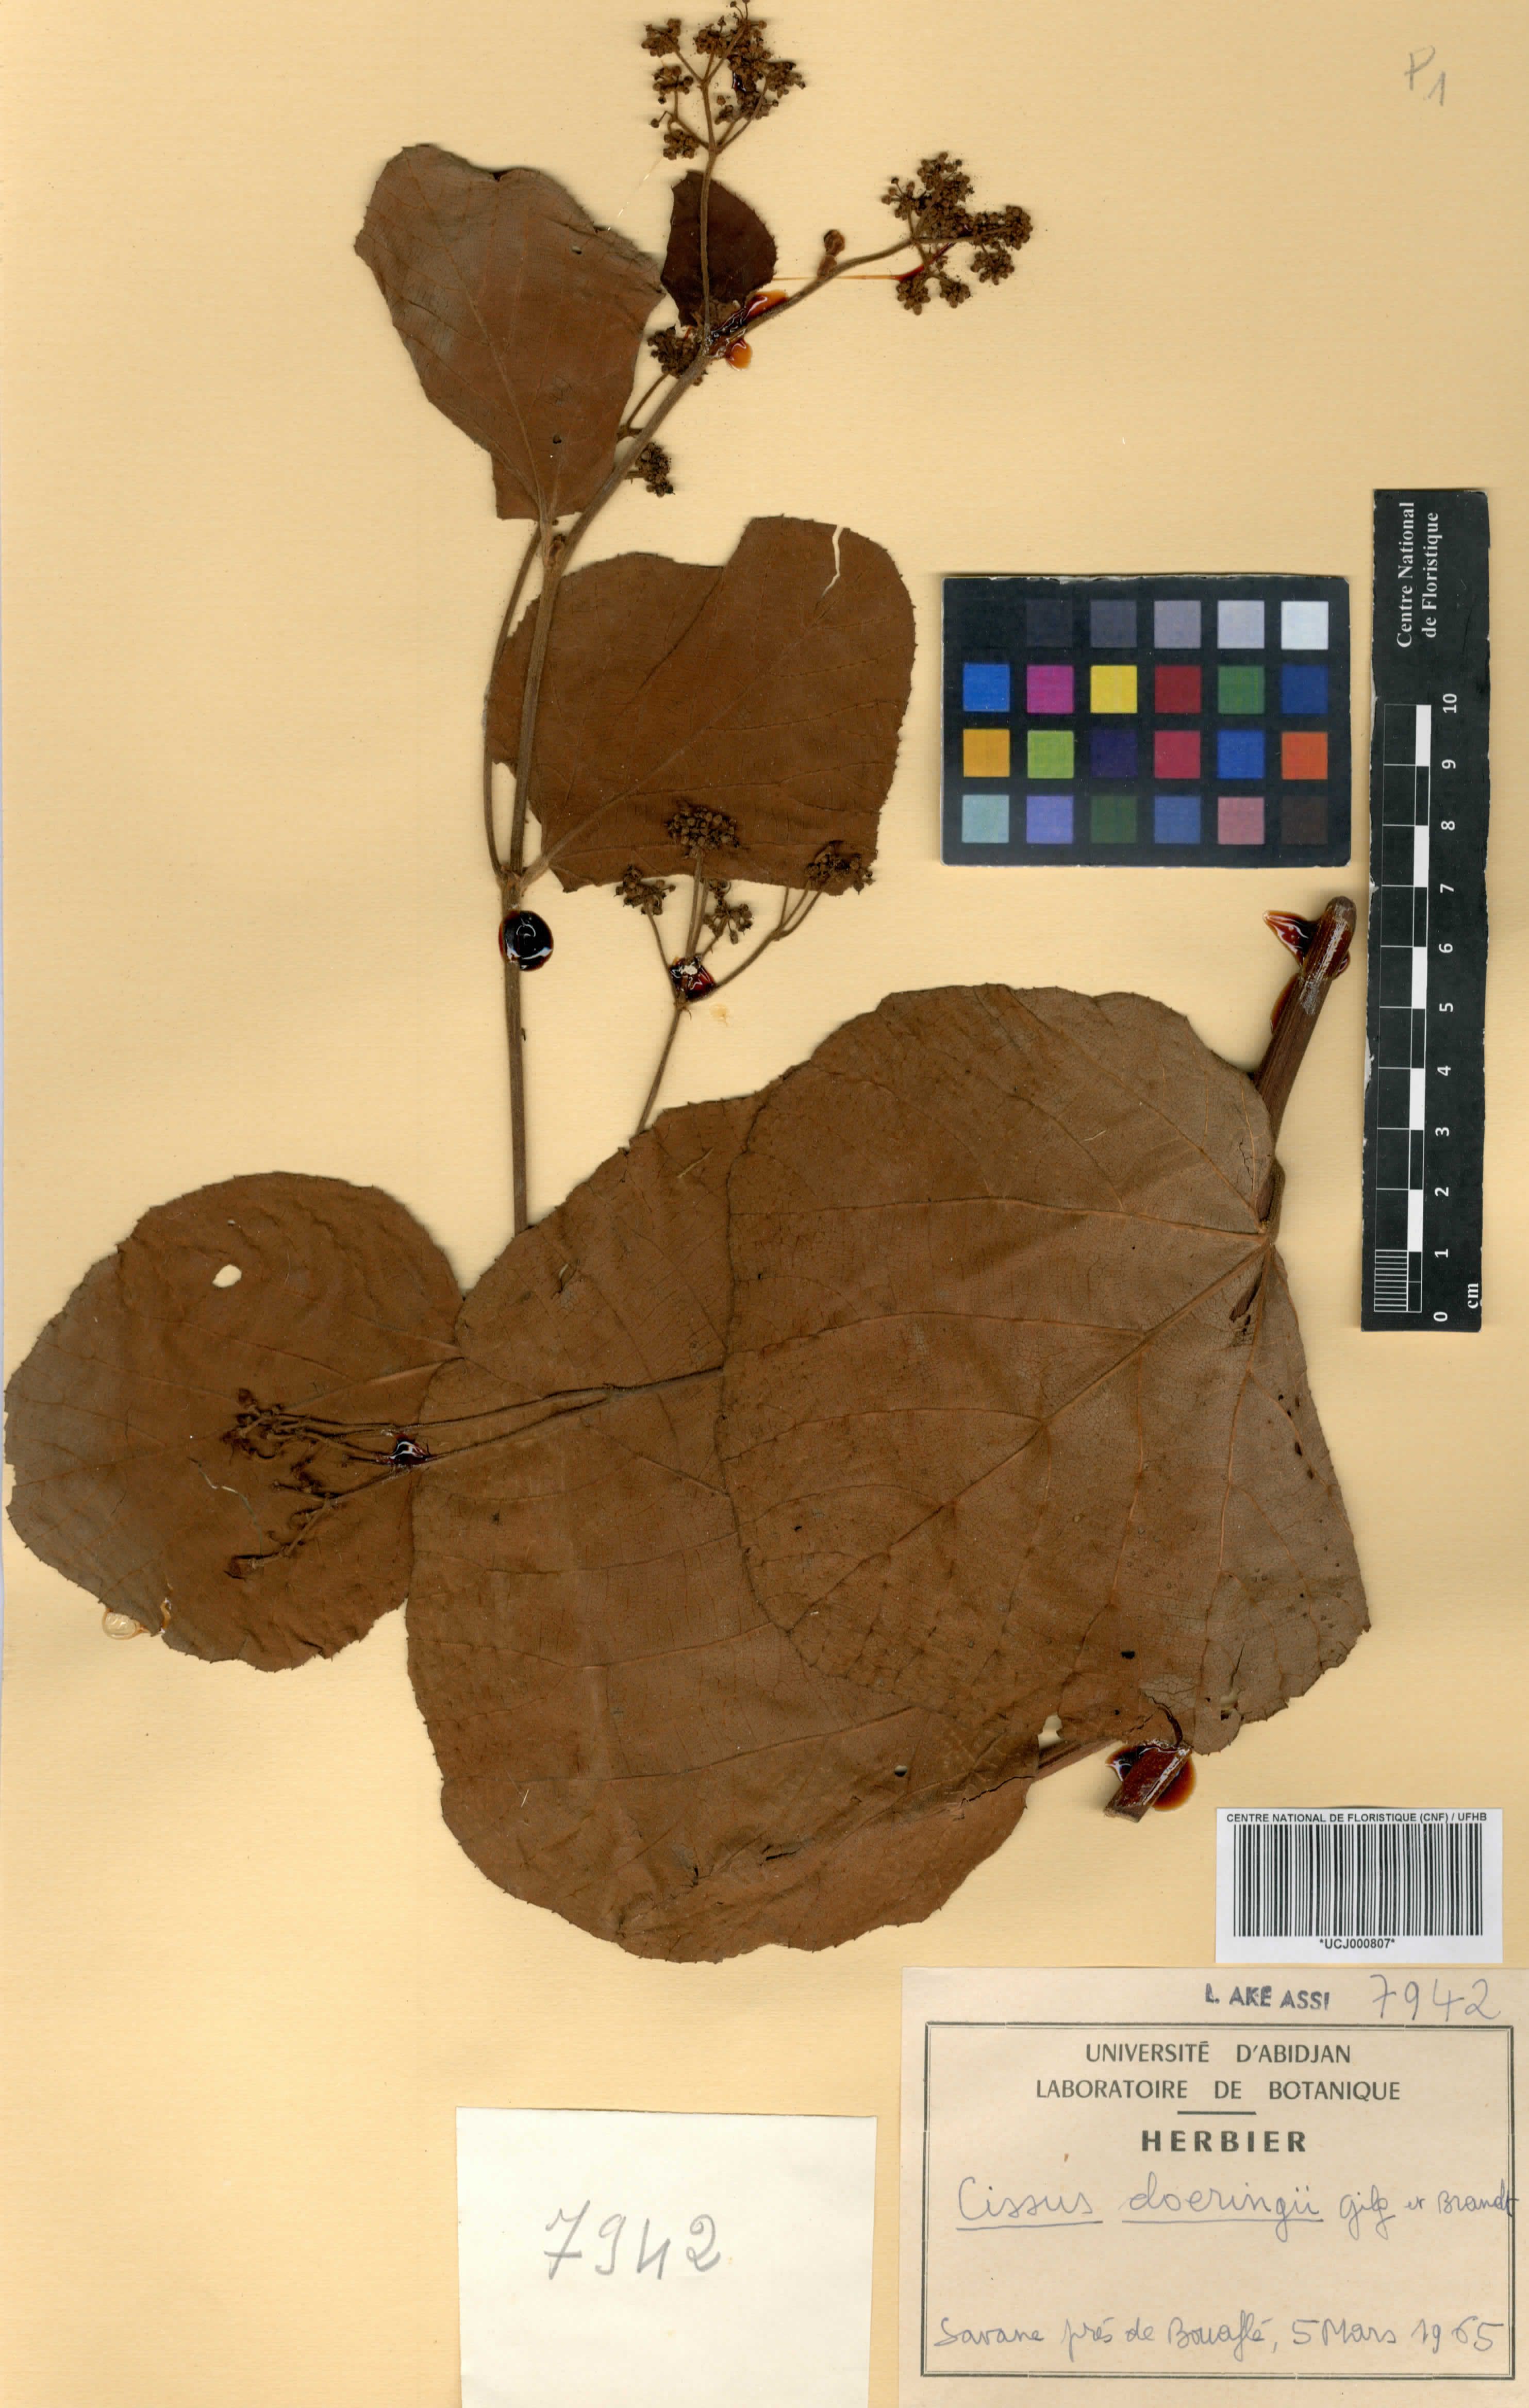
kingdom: Plantae
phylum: Tracheophyta
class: Magnoliopsida
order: Vitales
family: Vitaceae
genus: Cissus
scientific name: Cissus doeringii
